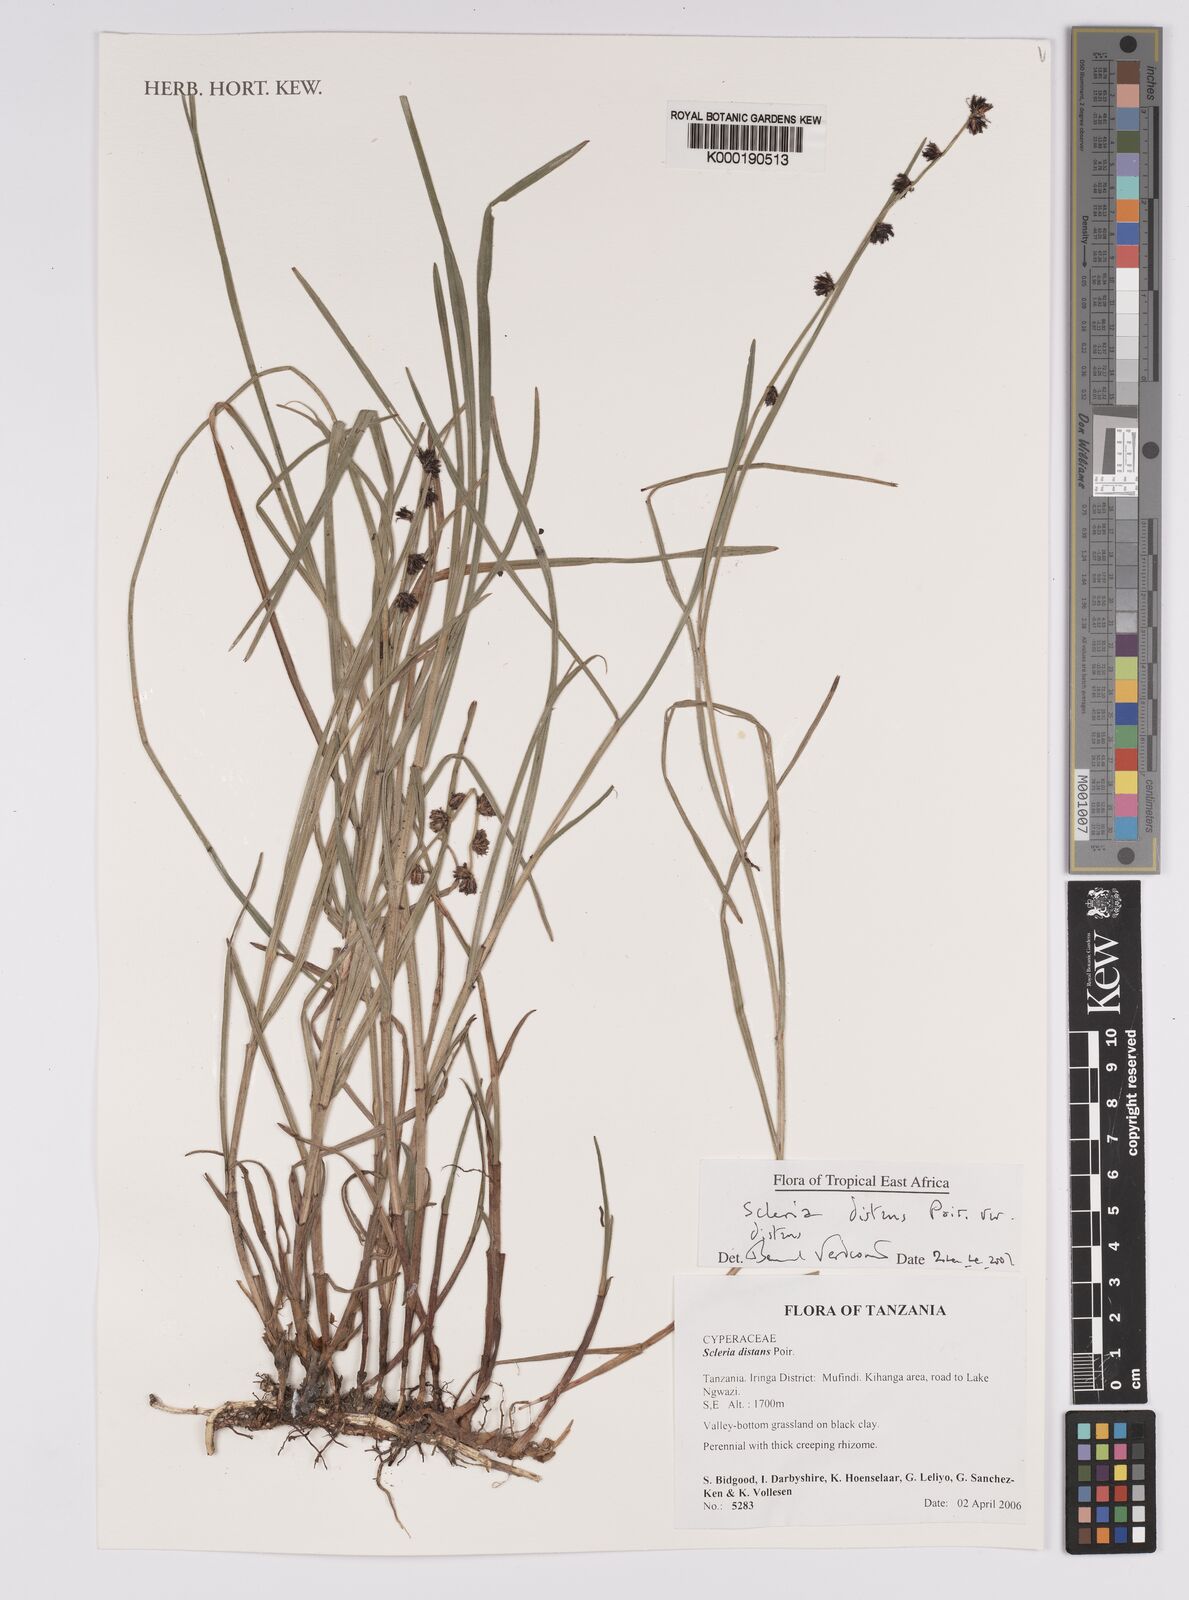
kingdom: Plantae
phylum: Tracheophyta
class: Liliopsida
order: Poales
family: Cyperaceae
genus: Scleria
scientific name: Scleria distans
